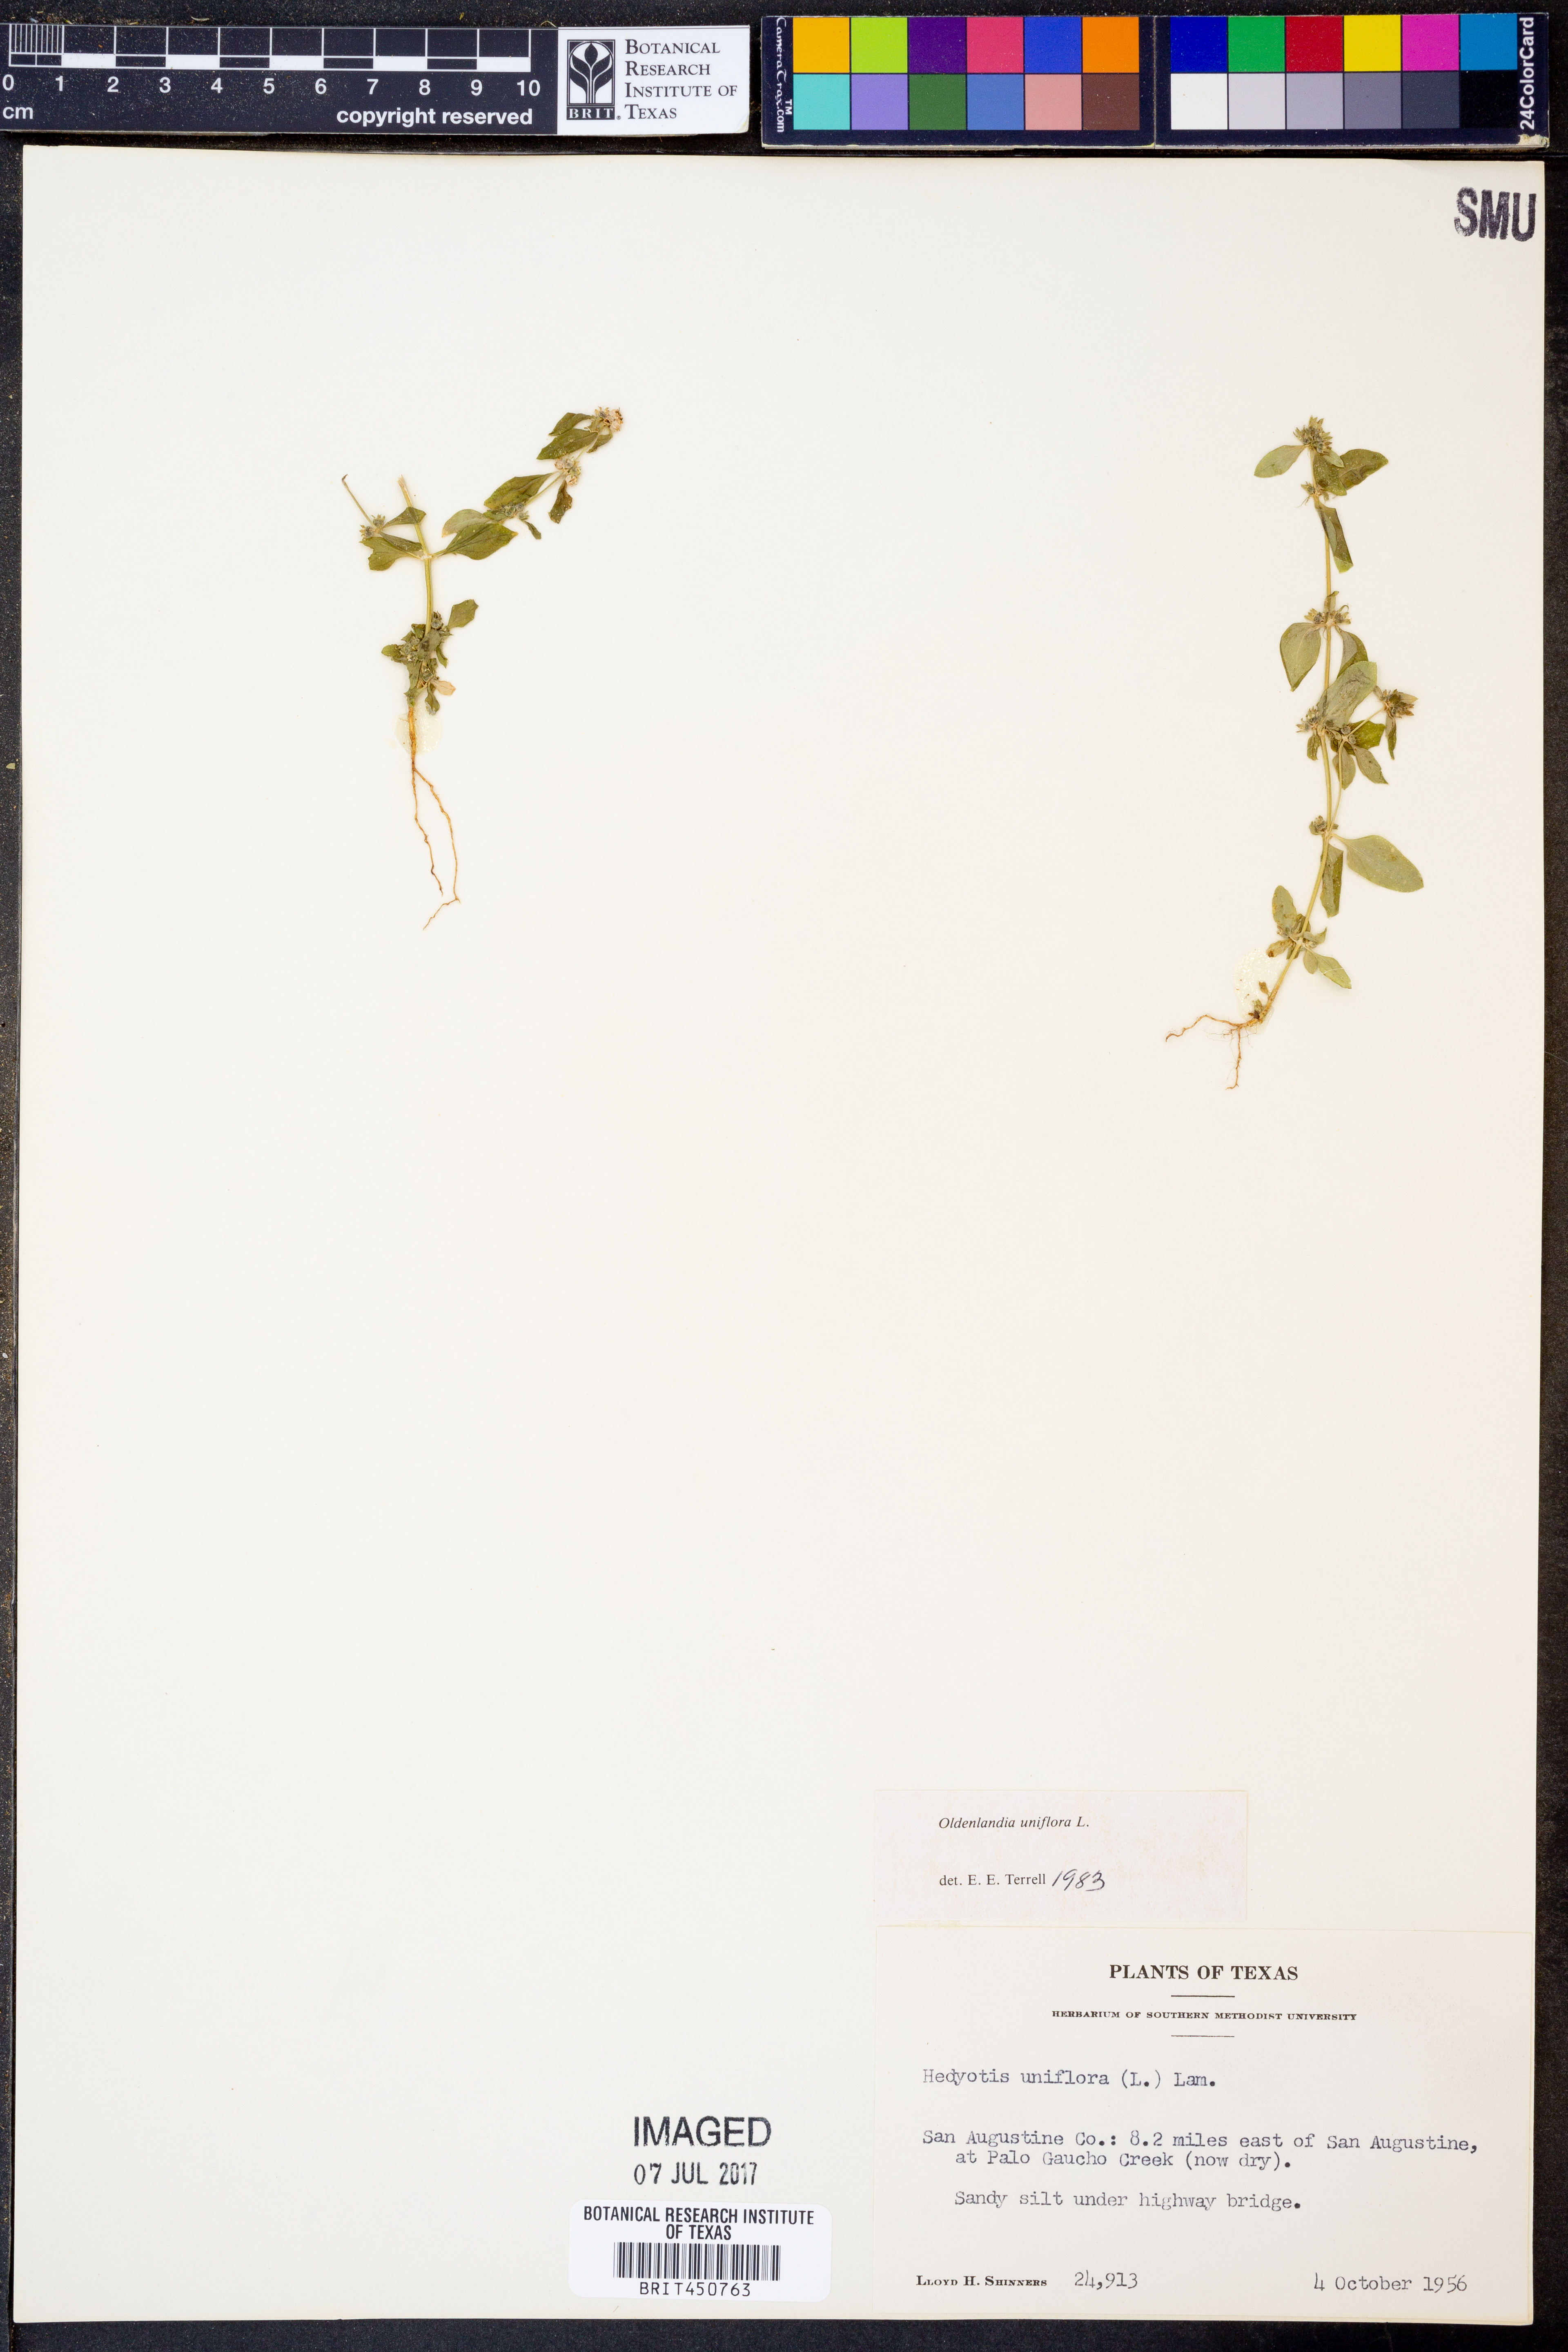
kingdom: Plantae
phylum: Tracheophyta
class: Magnoliopsida
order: Gentianales
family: Rubiaceae
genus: Edrastima
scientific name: Edrastima uniflora
